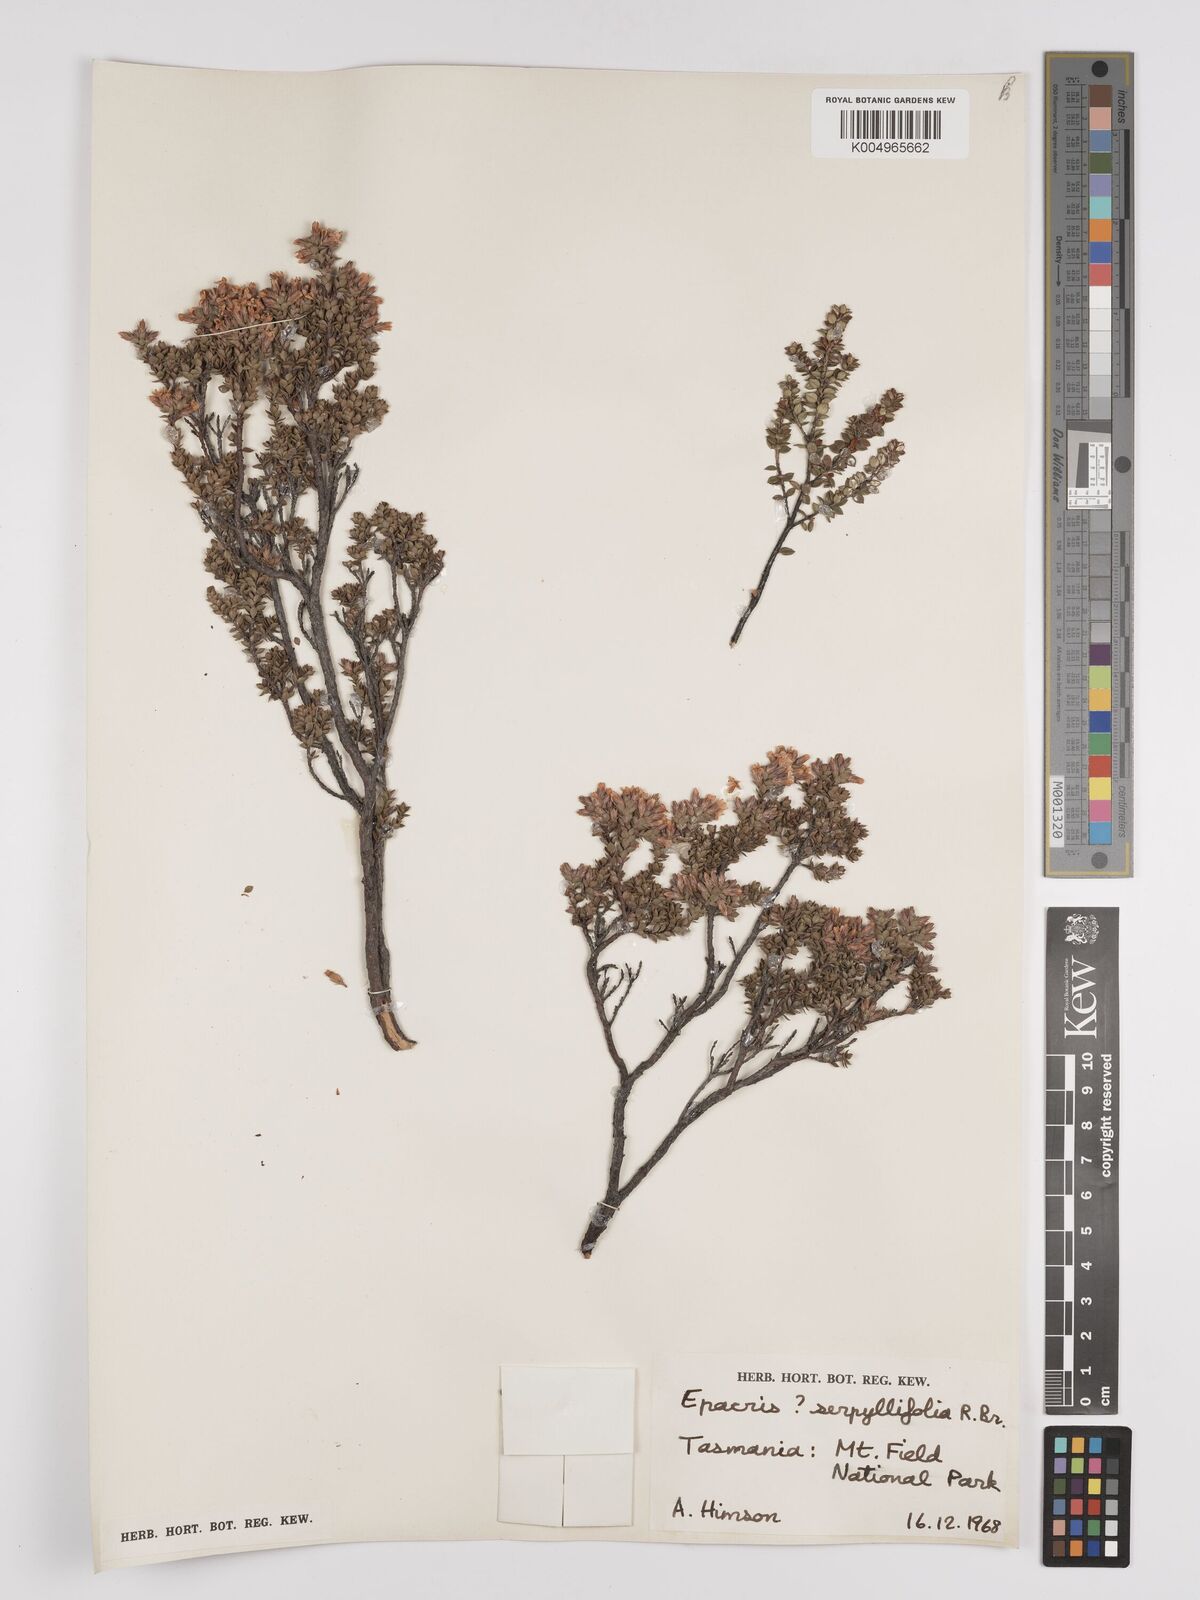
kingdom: Plantae
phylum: Tracheophyta
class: Magnoliopsida
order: Ericales
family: Ericaceae
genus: Epacris
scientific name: Epacris serpyllifolia
